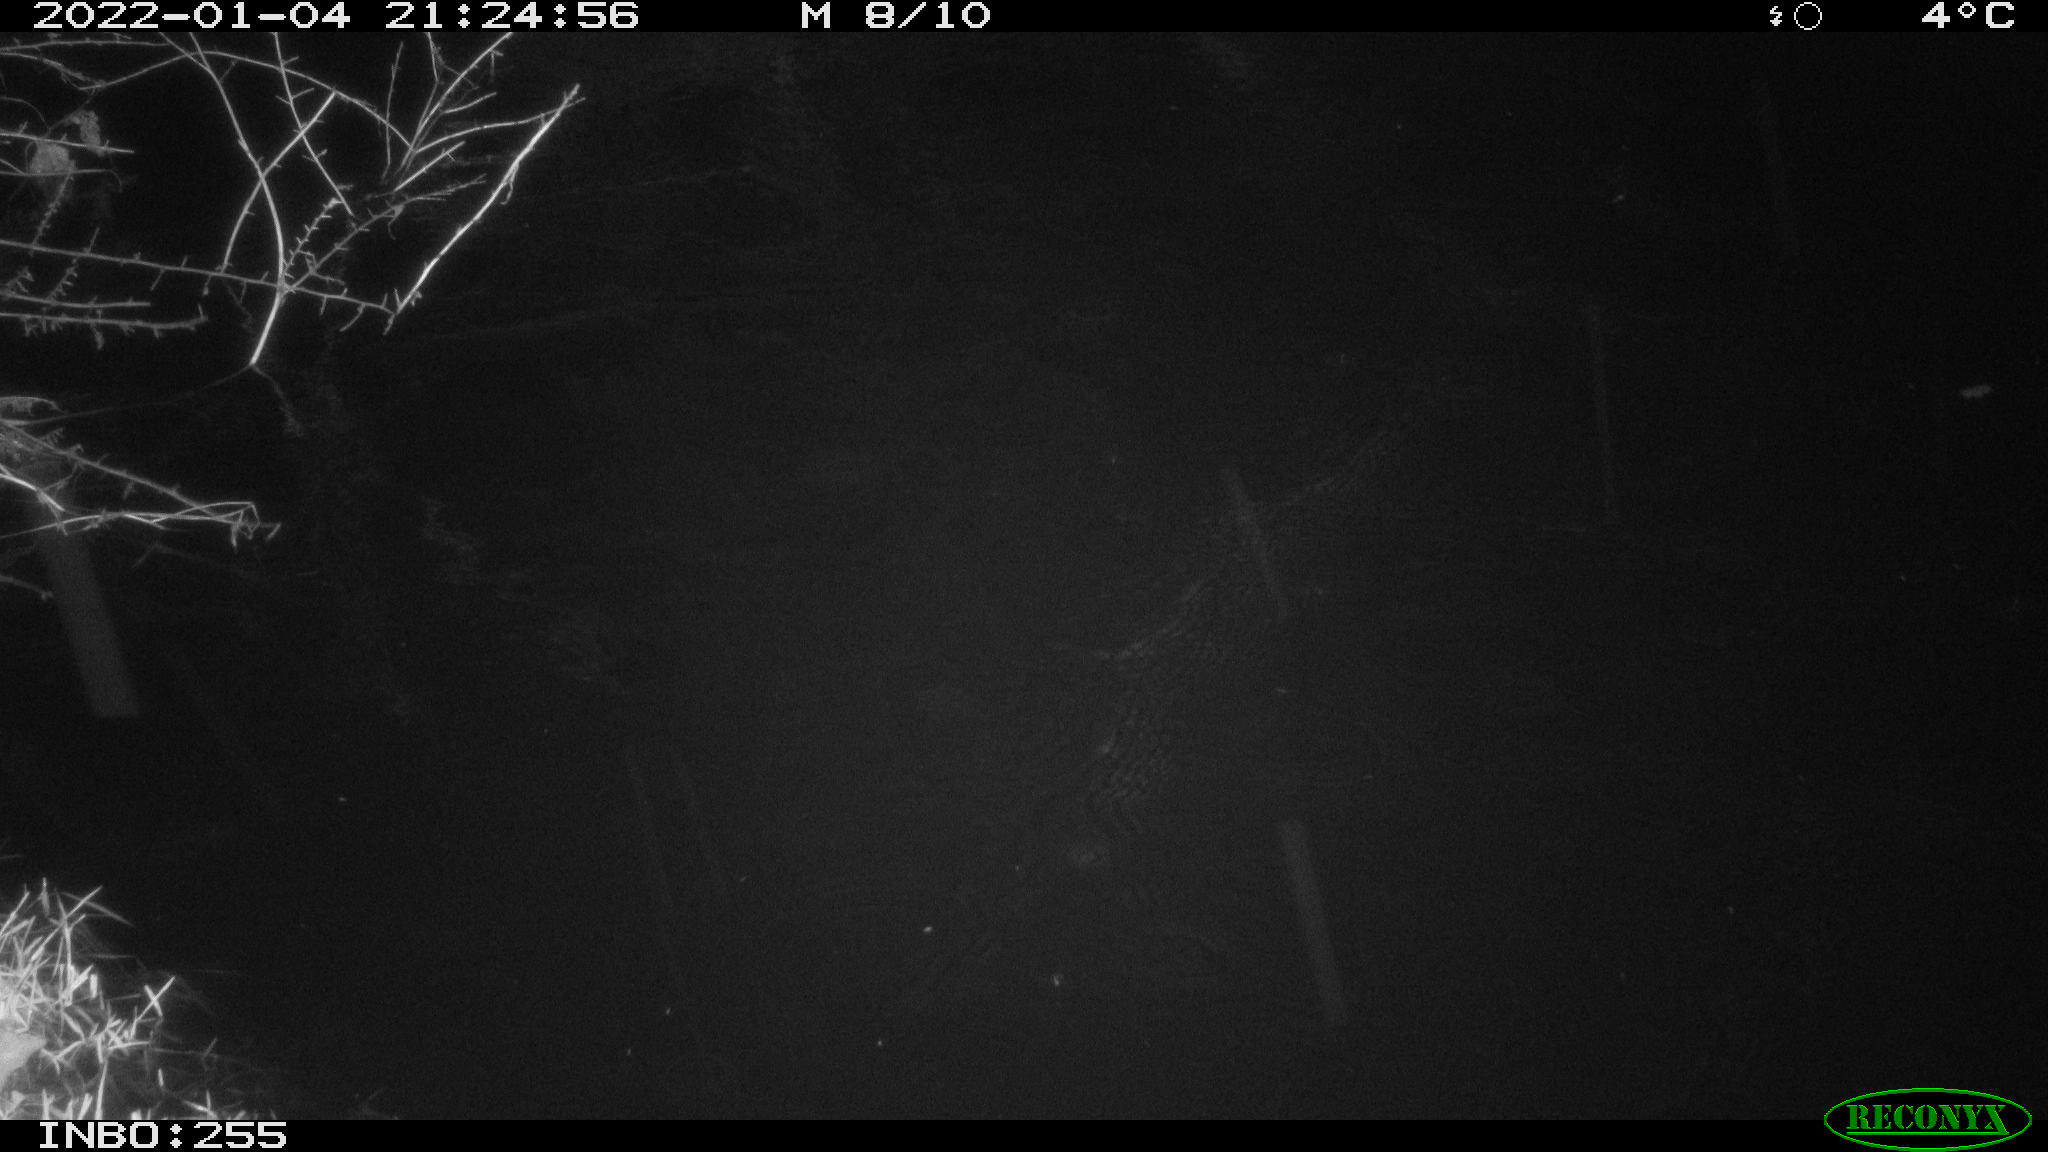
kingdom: Animalia
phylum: Chordata
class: Mammalia
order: Rodentia
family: Muridae
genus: Rattus
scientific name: Rattus norvegicus
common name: Brown rat
